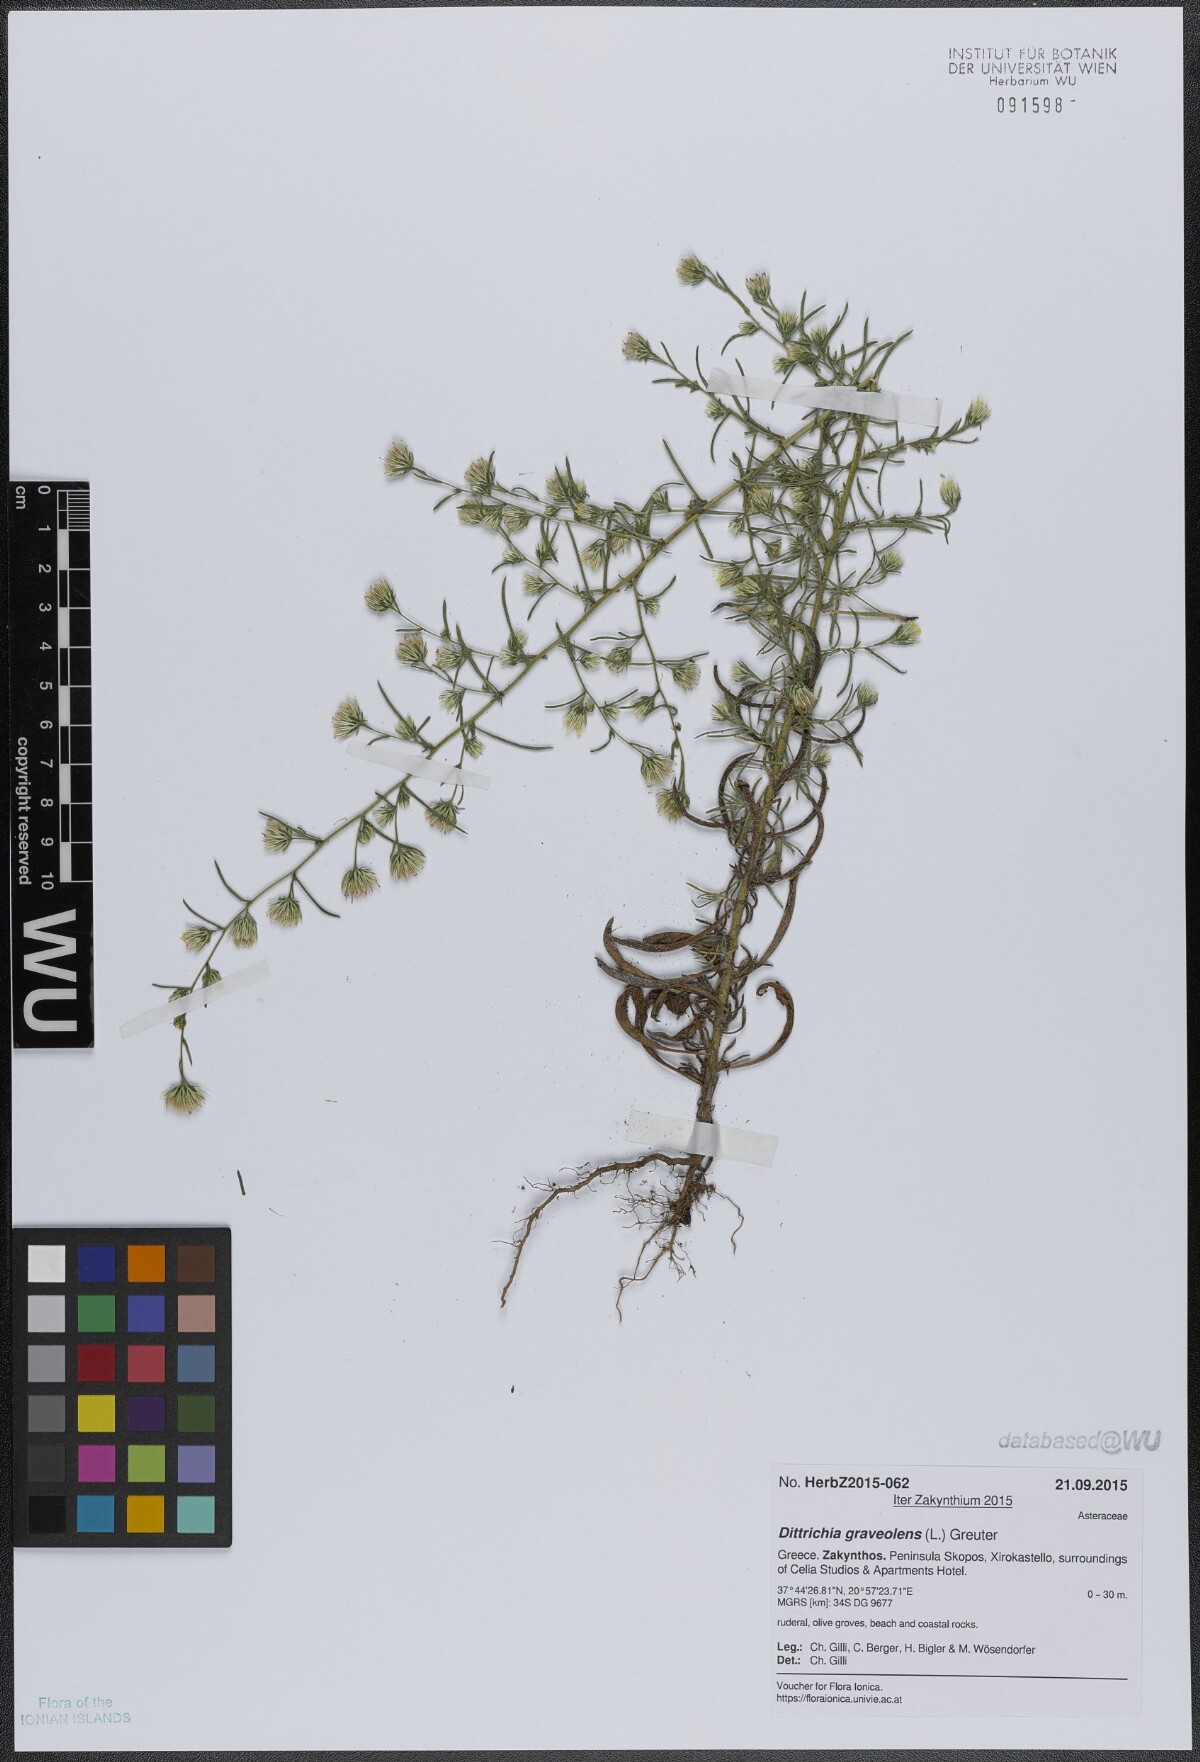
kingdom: Plantae
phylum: Tracheophyta
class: Magnoliopsida
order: Asterales
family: Asteraceae
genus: Dittrichia
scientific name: Dittrichia graveolens
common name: Stinking fleabane
